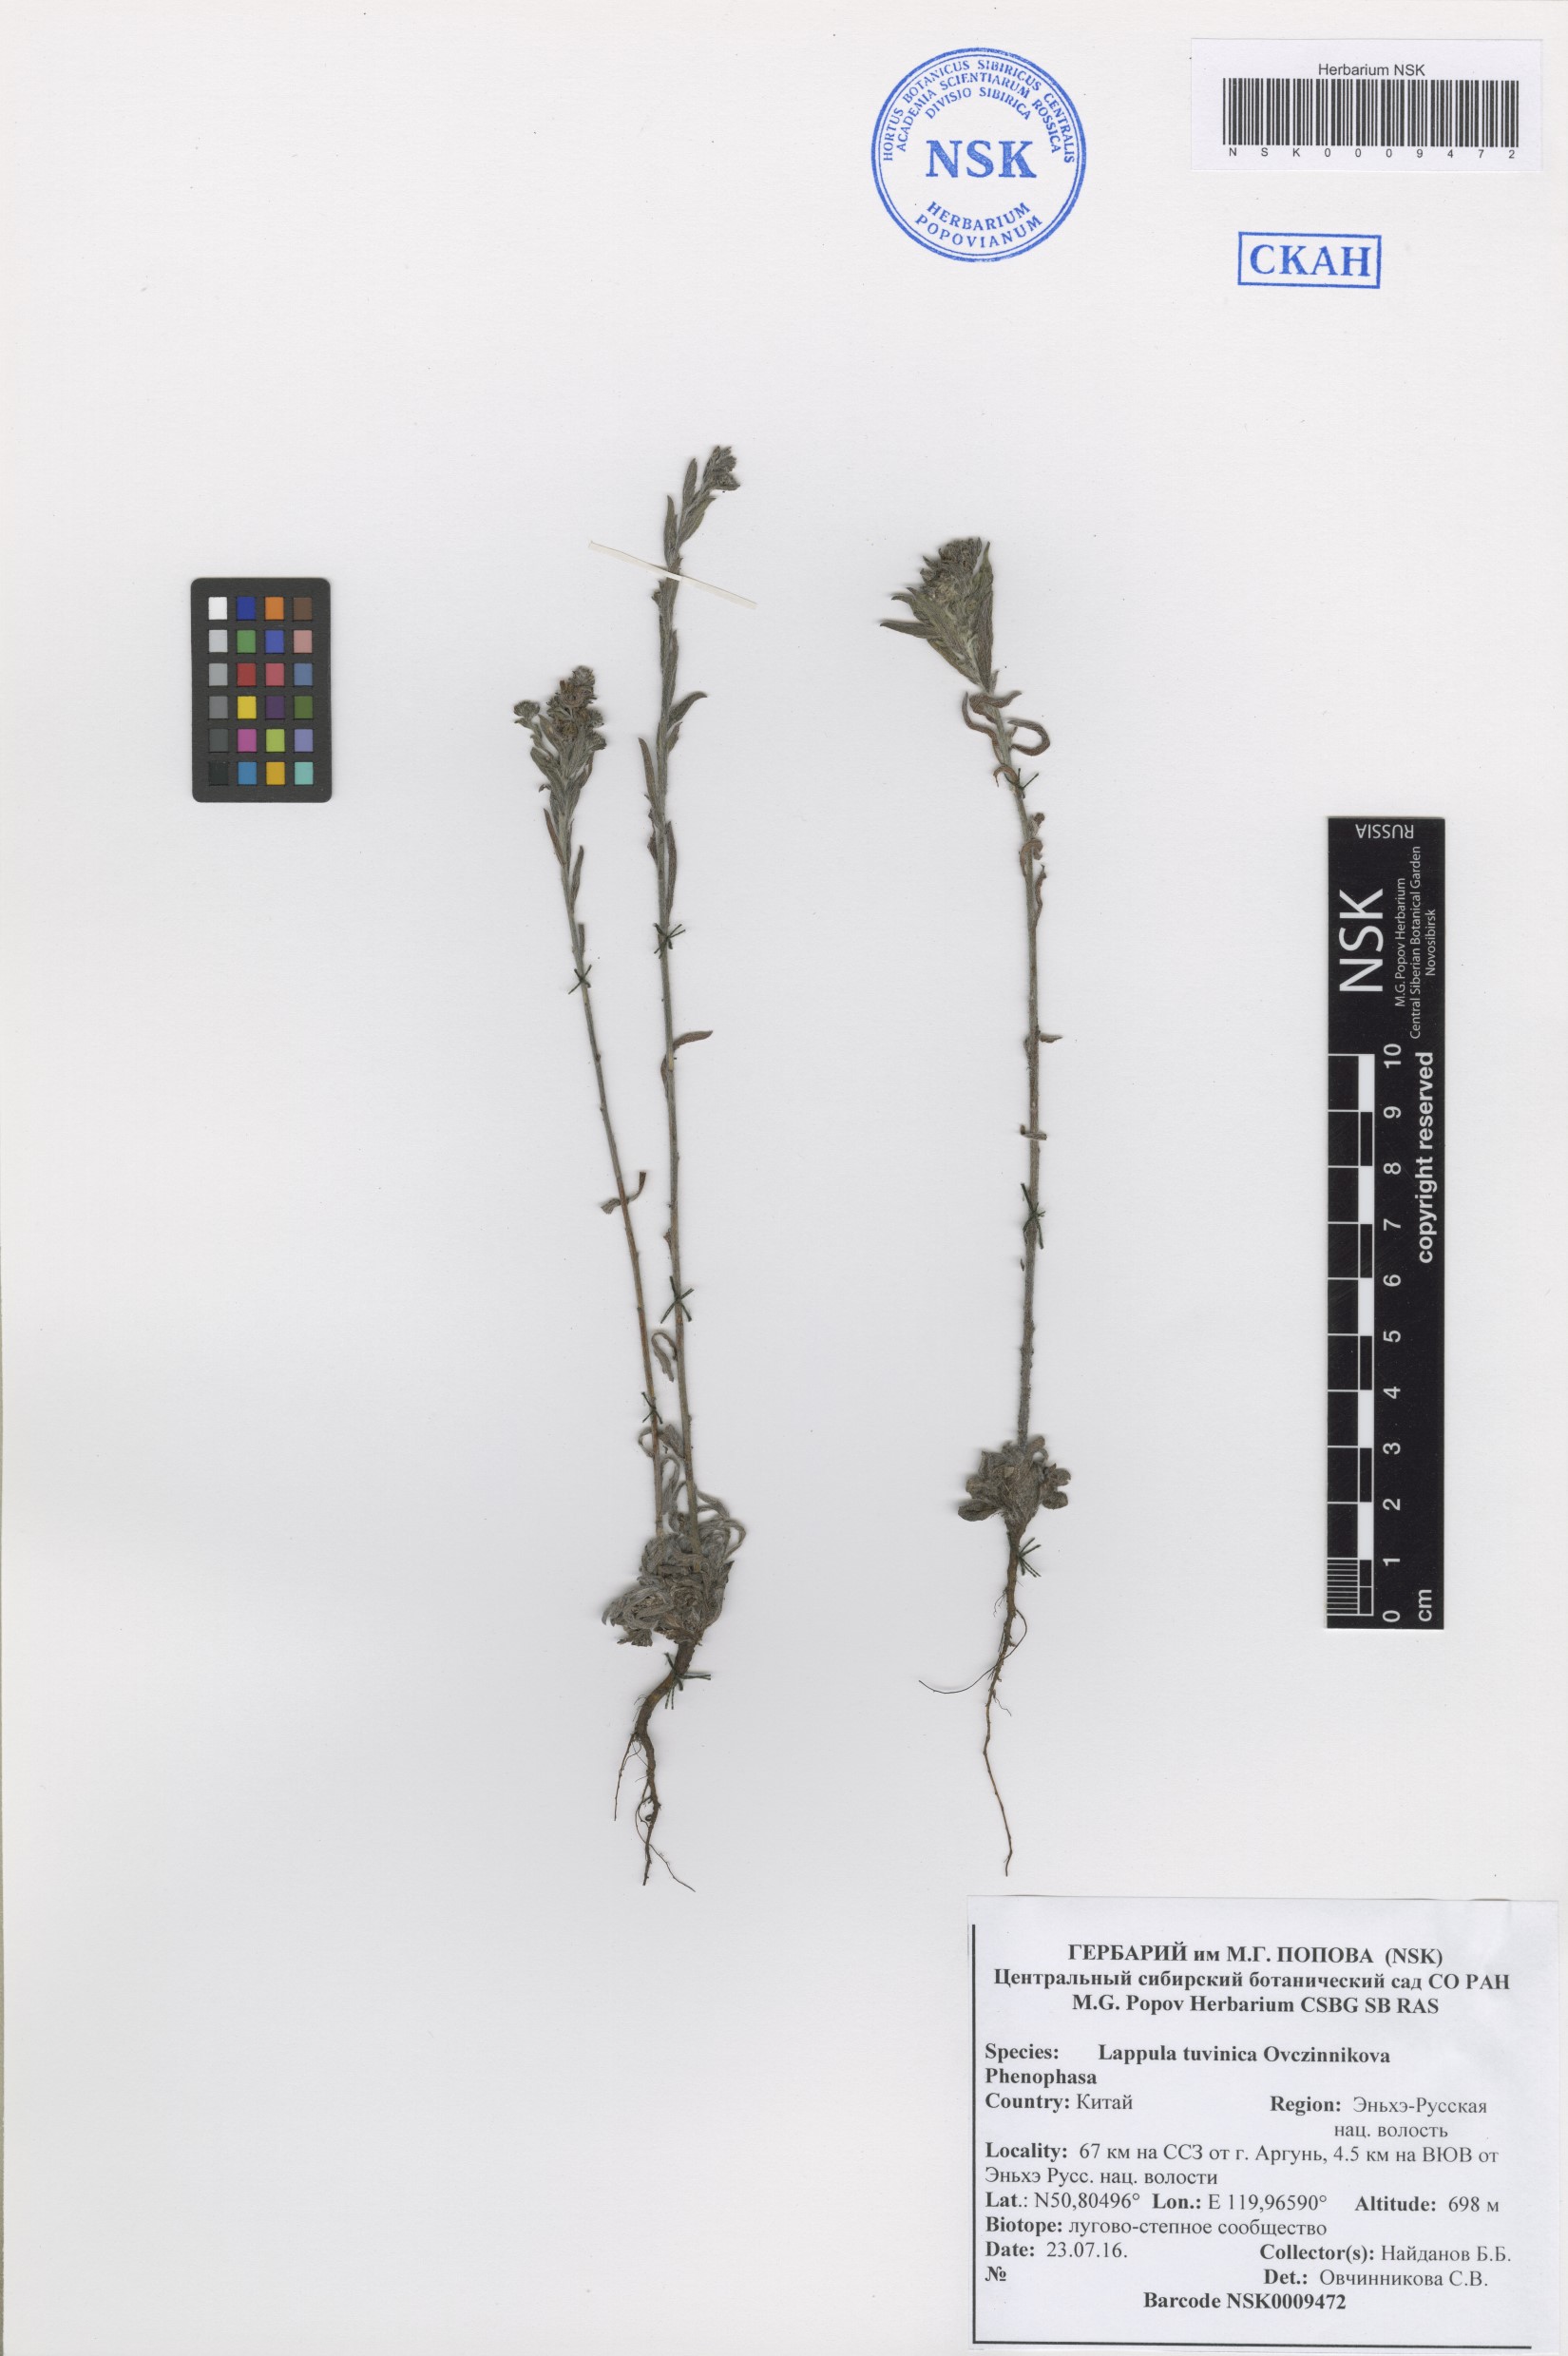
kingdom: Plantae
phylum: Tracheophyta
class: Magnoliopsida
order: Boraginales
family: Boraginaceae
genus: Lappula
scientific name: Lappula tuvinica
